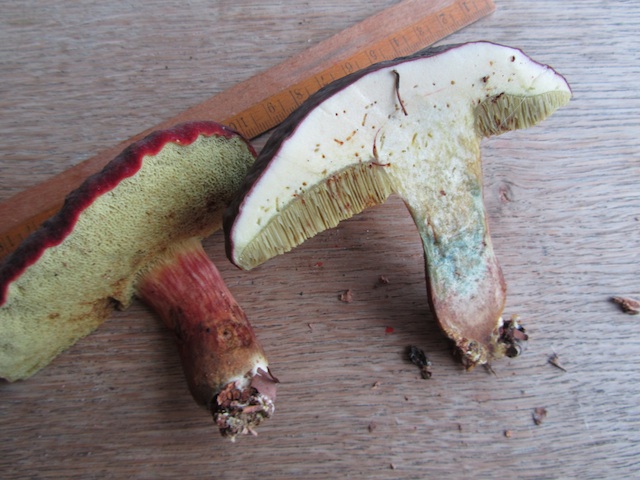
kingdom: Fungi
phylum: Basidiomycota
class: Agaricomycetes
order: Boletales
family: Boletaceae
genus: Xerocomellus
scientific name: Xerocomellus pruinatus
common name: dugget rørhat
